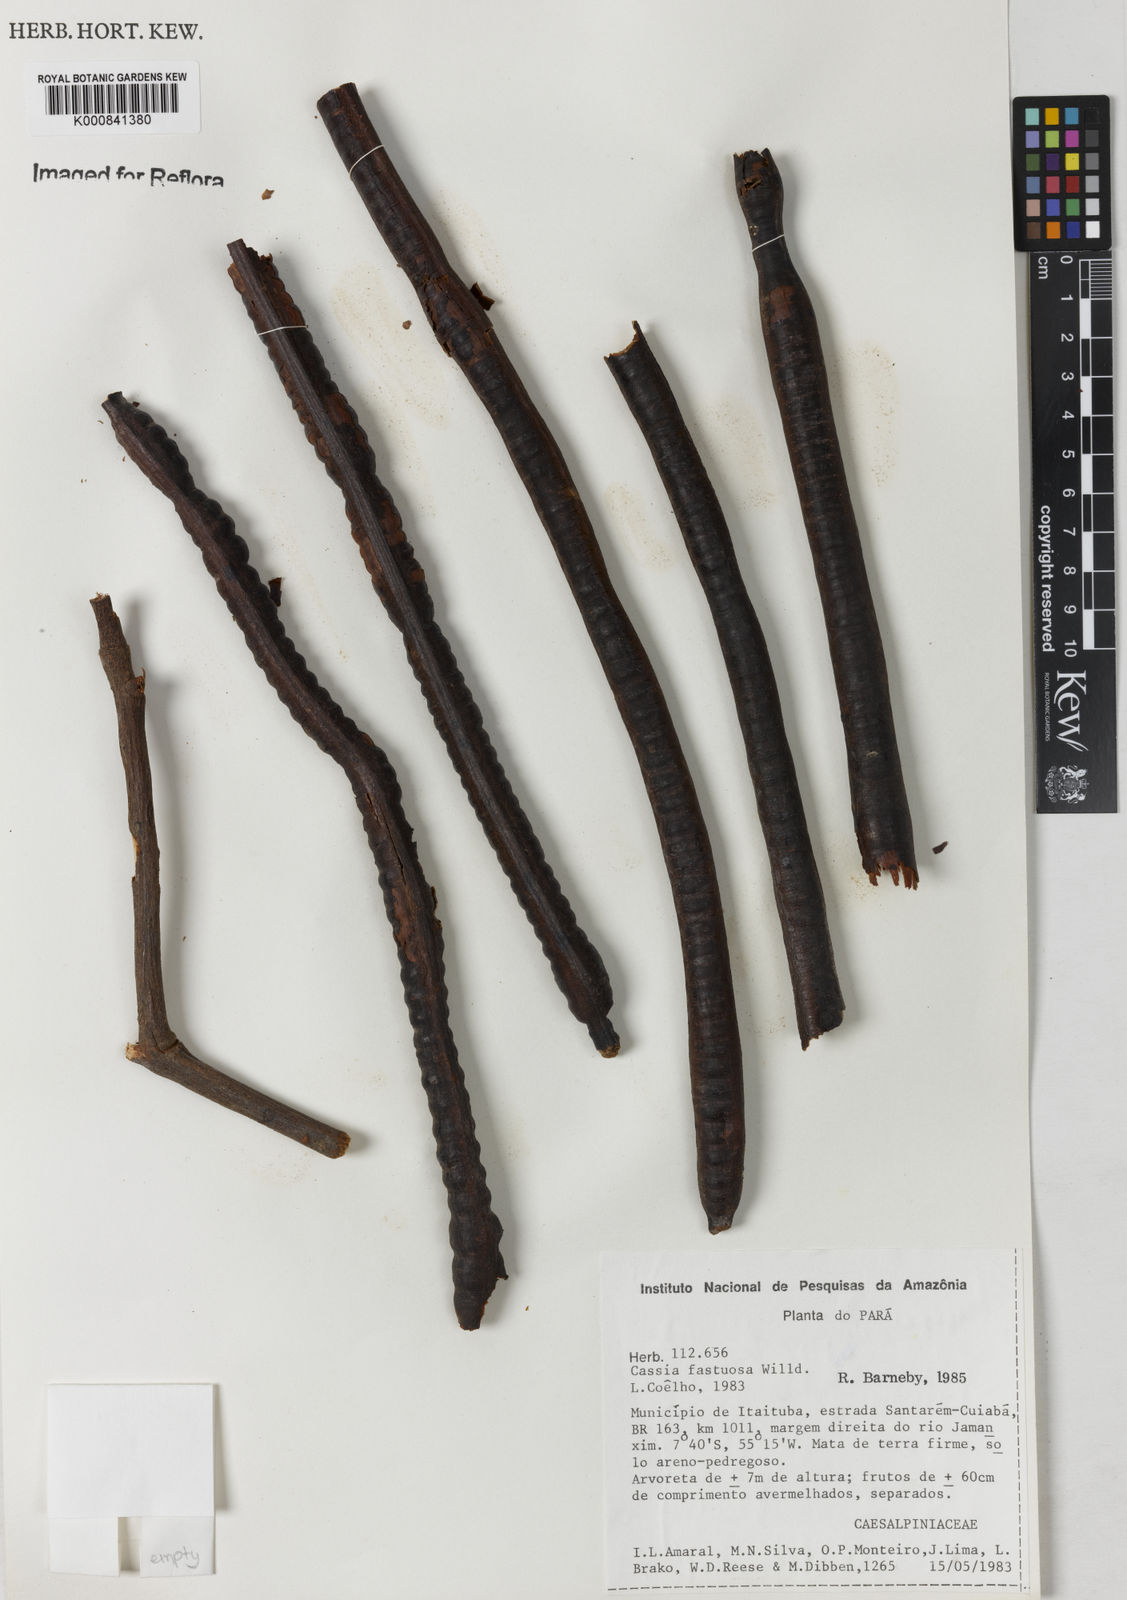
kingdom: Plantae
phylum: Tracheophyta
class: Magnoliopsida
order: Fabales
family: Fabaceae
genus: Cassia
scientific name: Cassia
